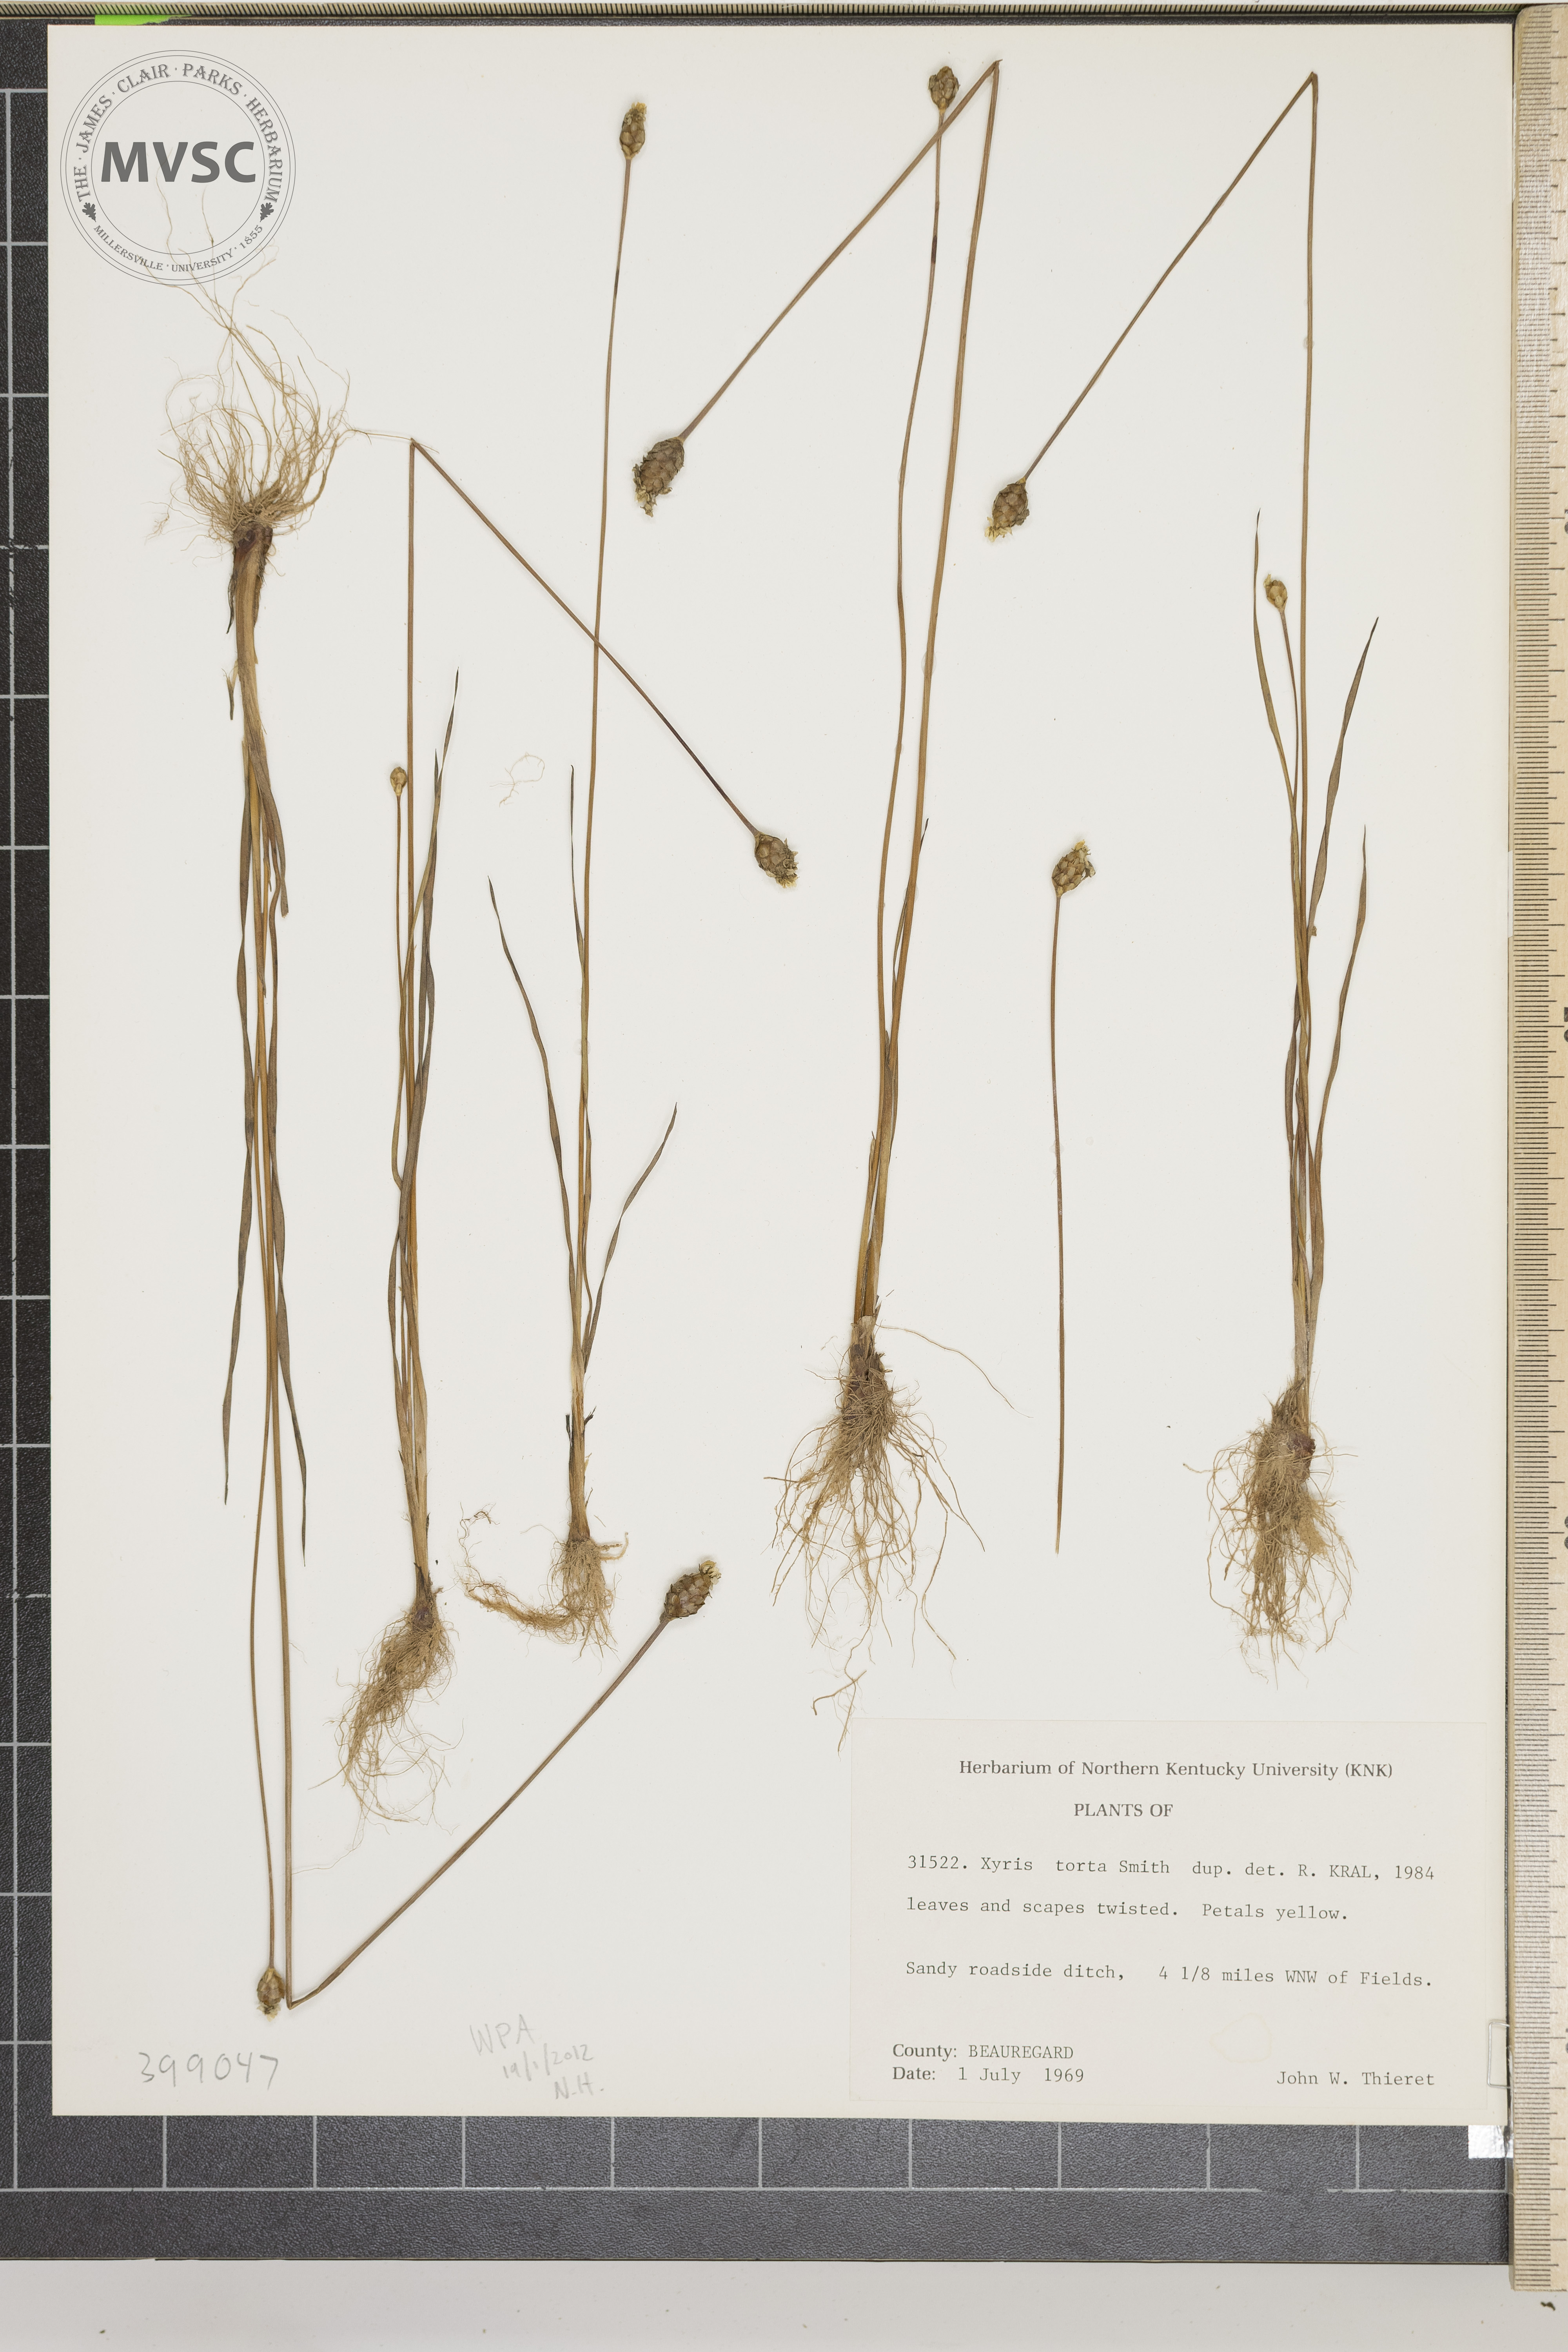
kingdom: Plantae
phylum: Tracheophyta
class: Liliopsida
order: Poales
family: Xyridaceae
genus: Xyris
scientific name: Xyris torta
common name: Yellow-eyed-grass
